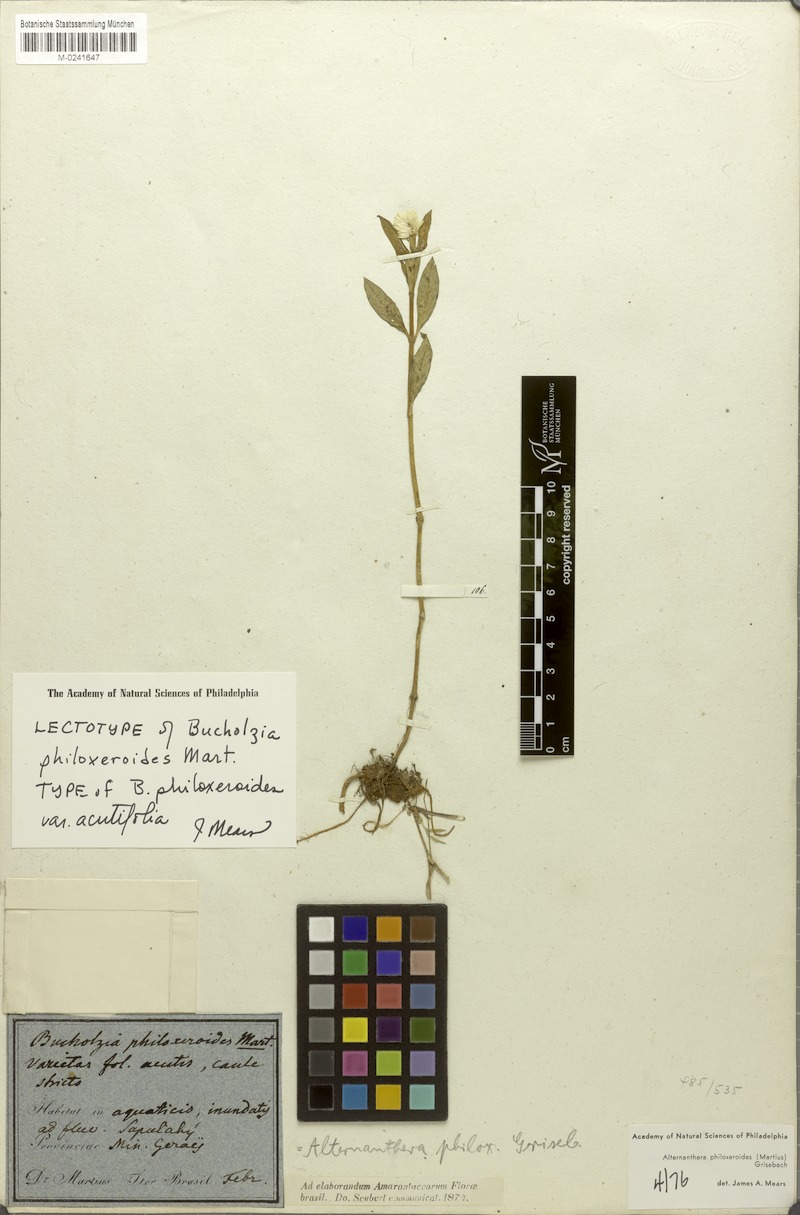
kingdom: Plantae
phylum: Tracheophyta
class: Magnoliopsida
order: Caryophyllales
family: Amaranthaceae
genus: Alternanthera
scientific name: Alternanthera philoxeroides
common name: Alligatorweed
